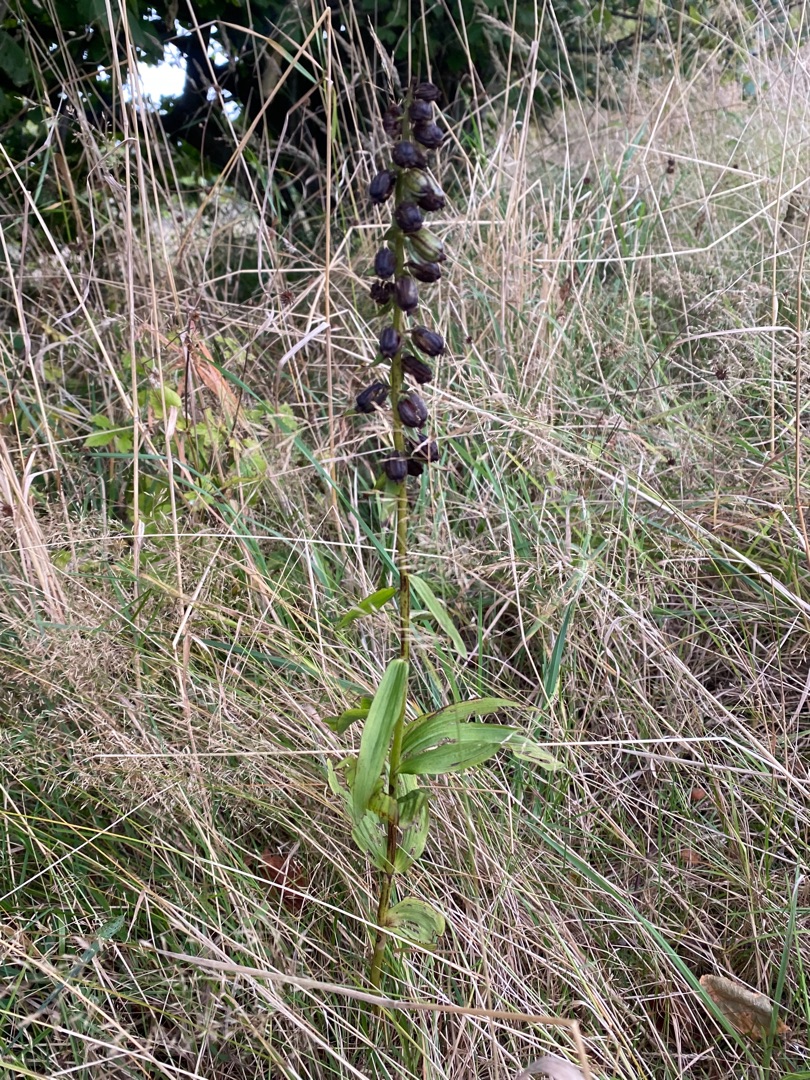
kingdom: Plantae
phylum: Tracheophyta
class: Liliopsida
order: Asparagales
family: Orchidaceae
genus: Epipactis
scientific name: Epipactis helleborine
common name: Skov-hullæbe
